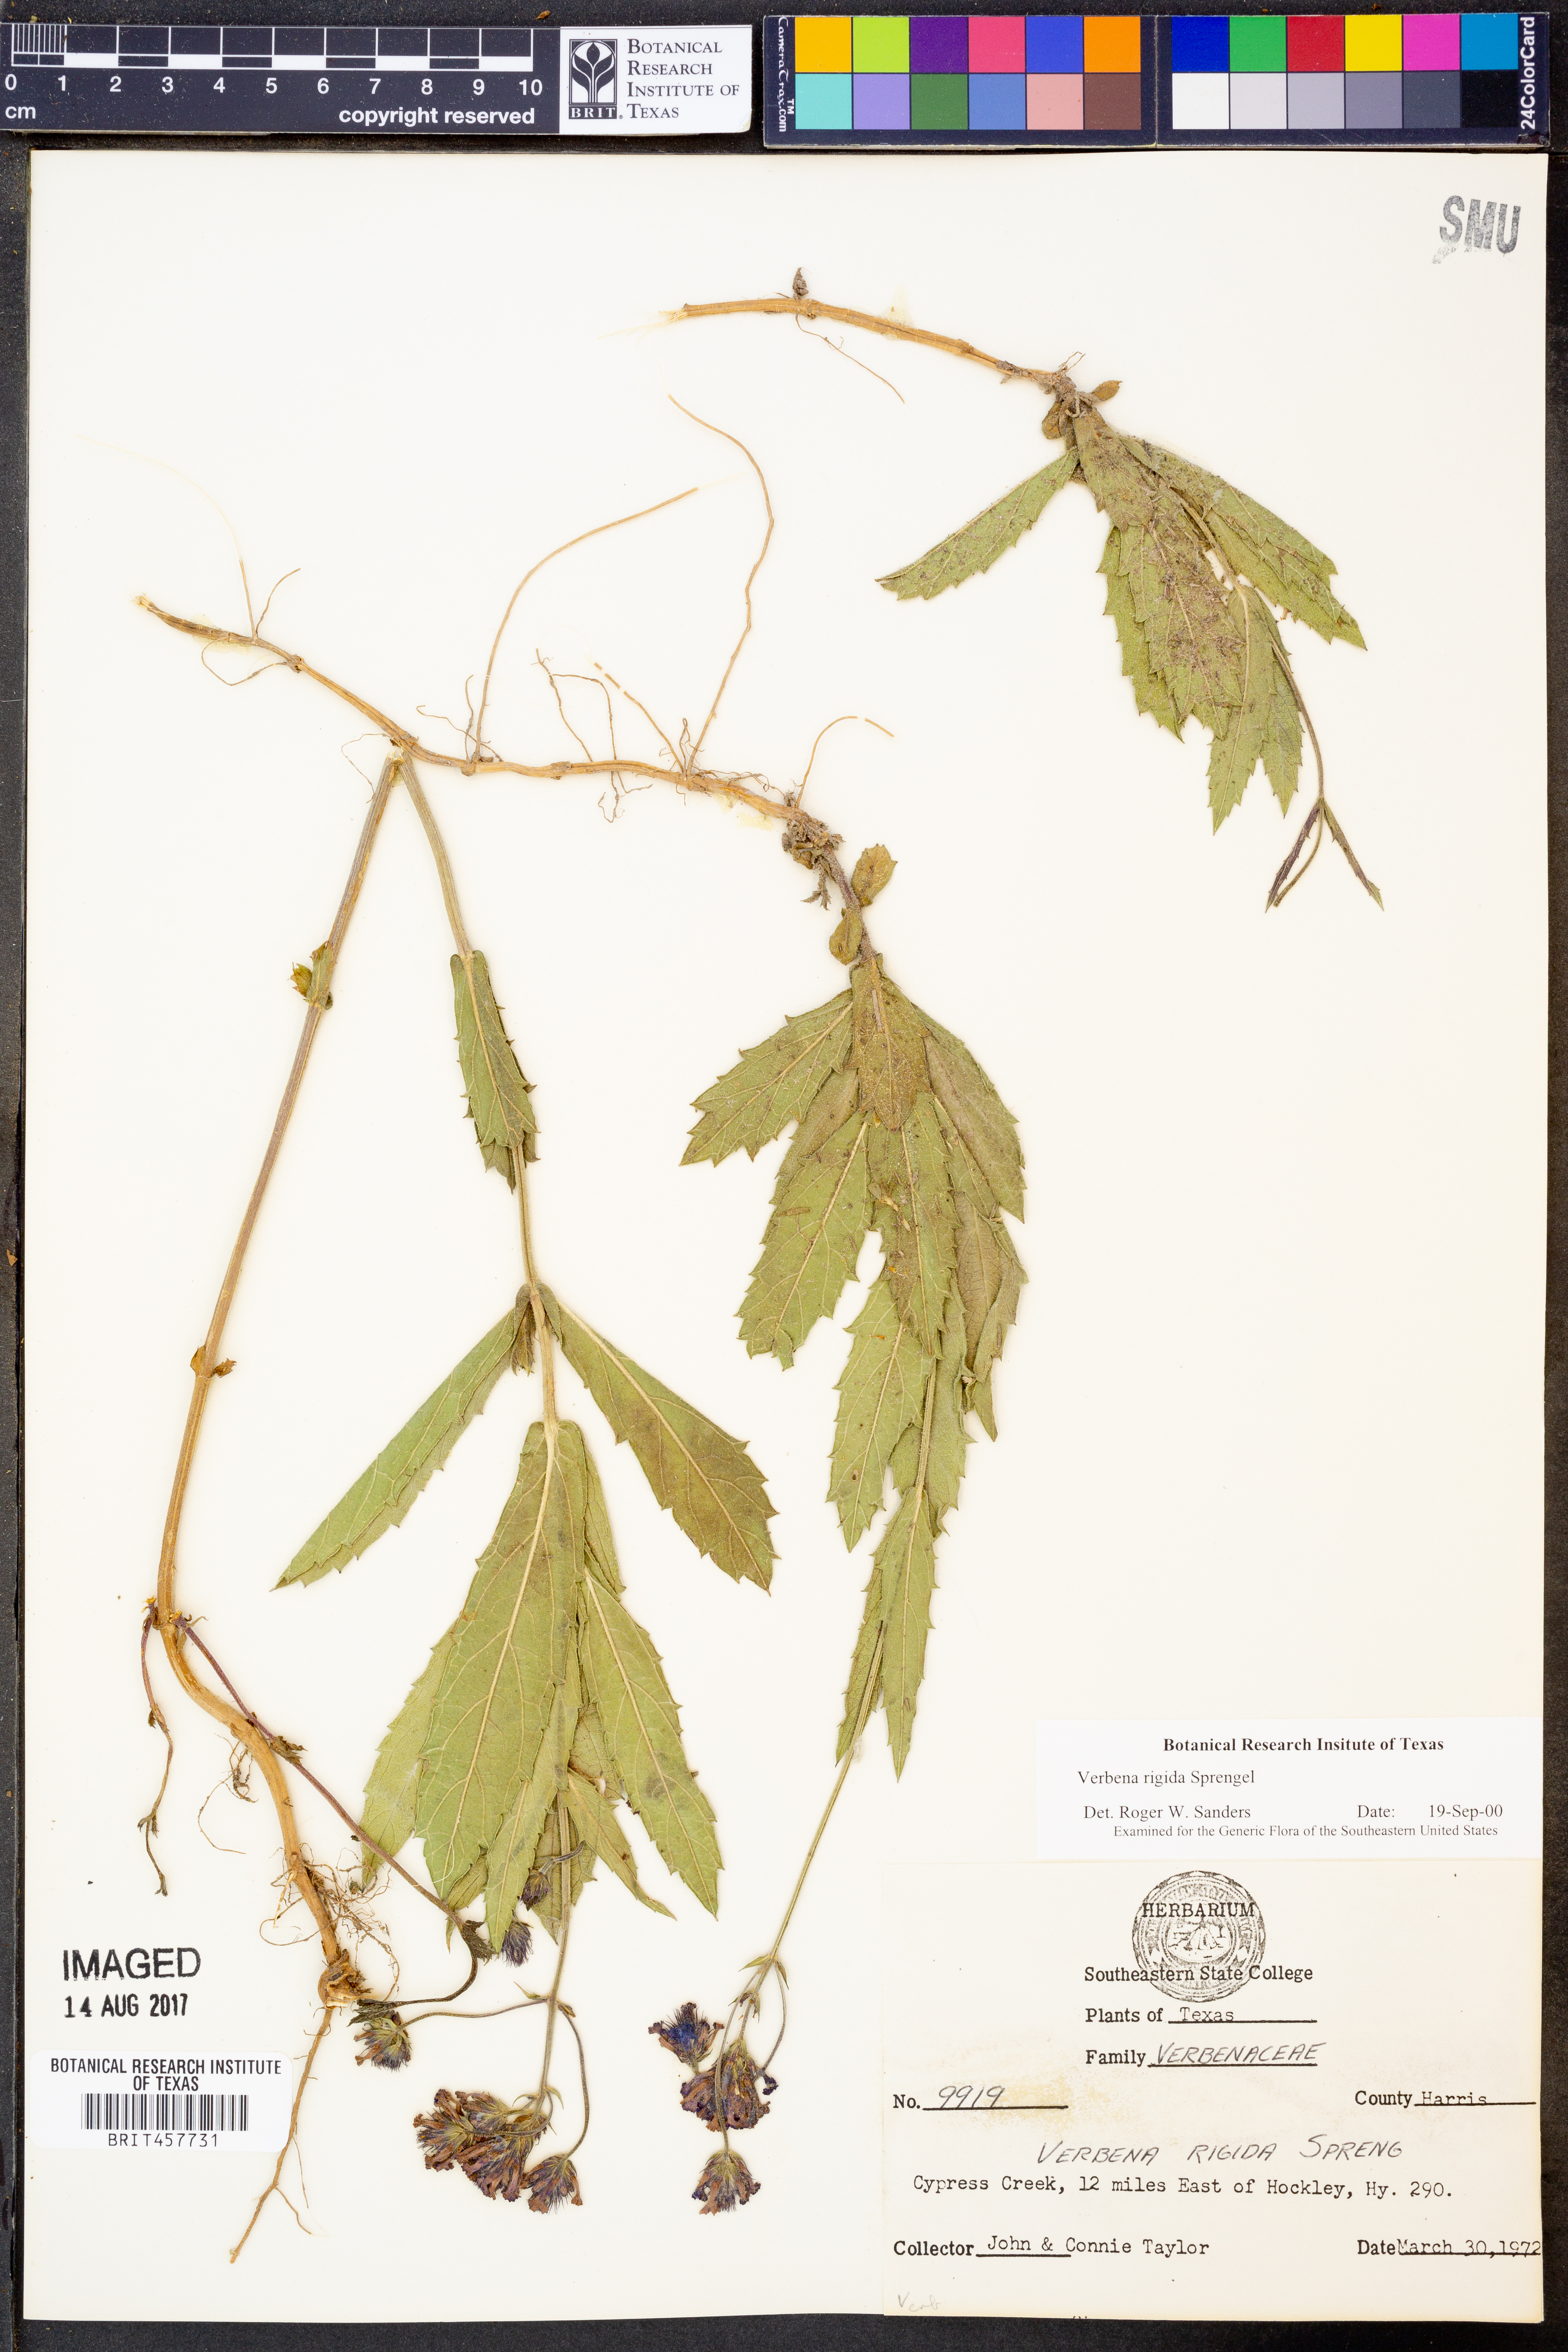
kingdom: Plantae
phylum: Tracheophyta
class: Magnoliopsida
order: Lamiales
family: Verbenaceae
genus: Verbena
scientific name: Verbena rigida
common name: Slender vervain
